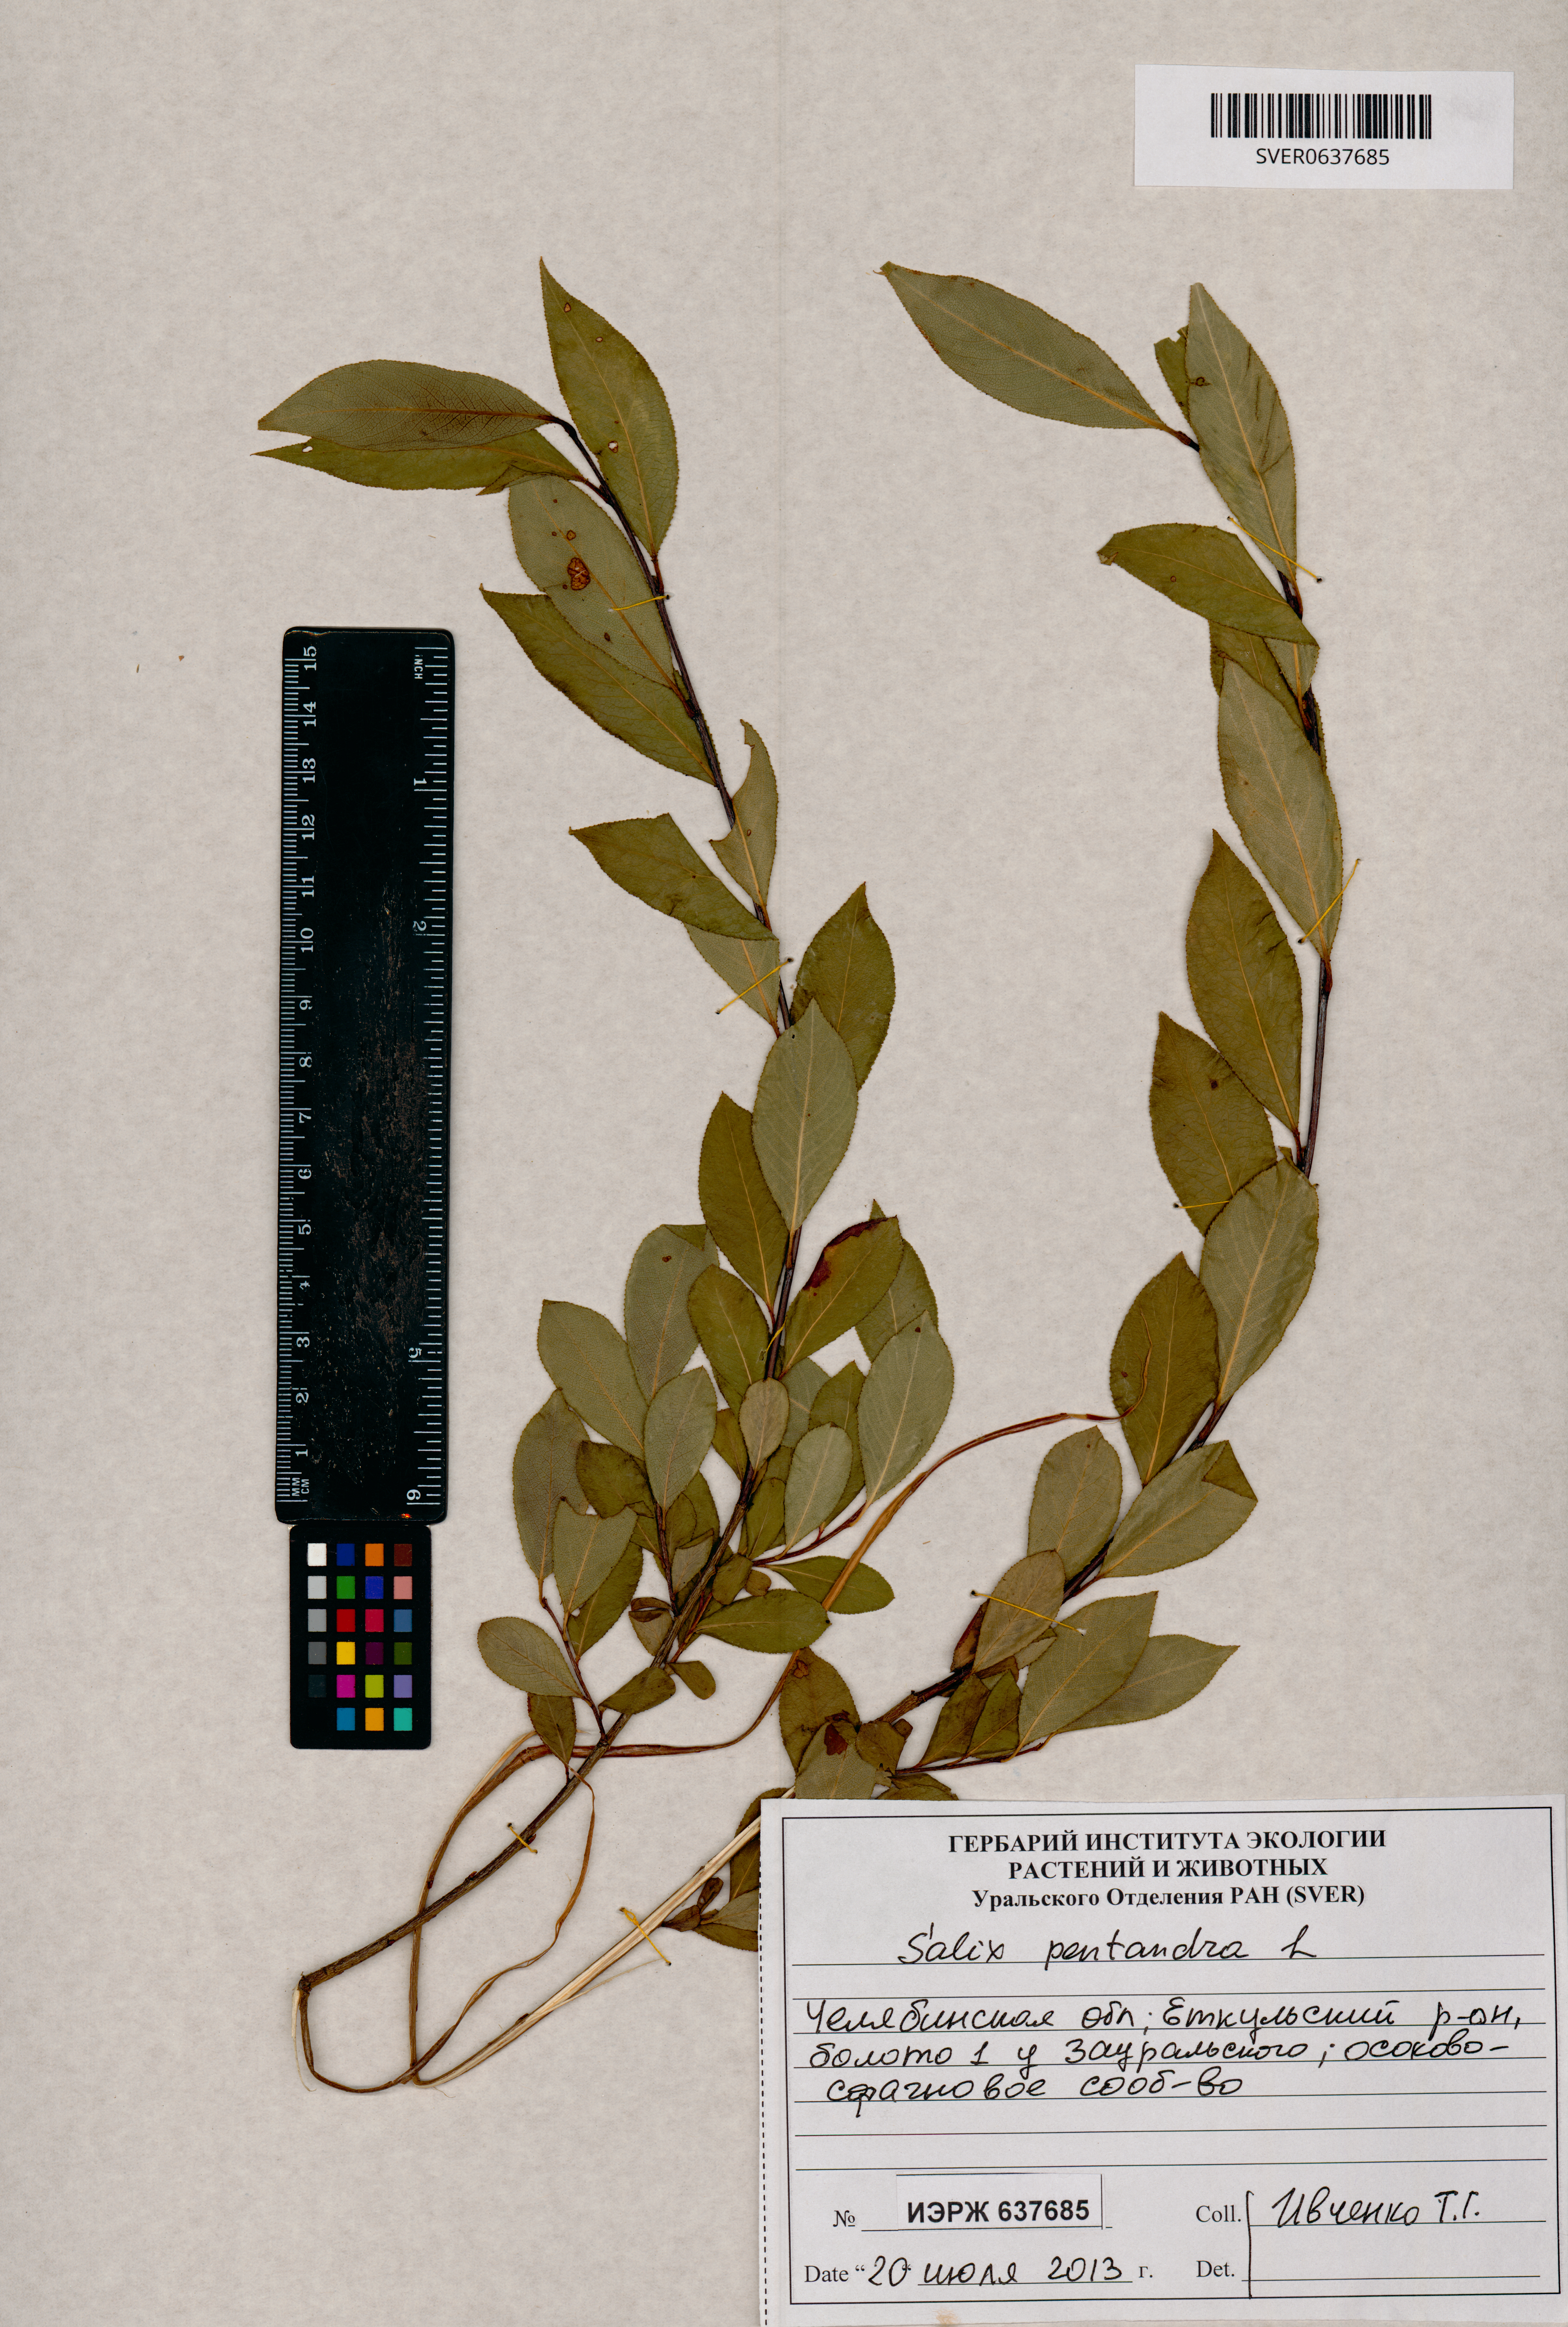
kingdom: Plantae
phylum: Tracheophyta
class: Magnoliopsida
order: Malpighiales
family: Salicaceae
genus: Salix
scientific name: Salix pentandra
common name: Bay willow
